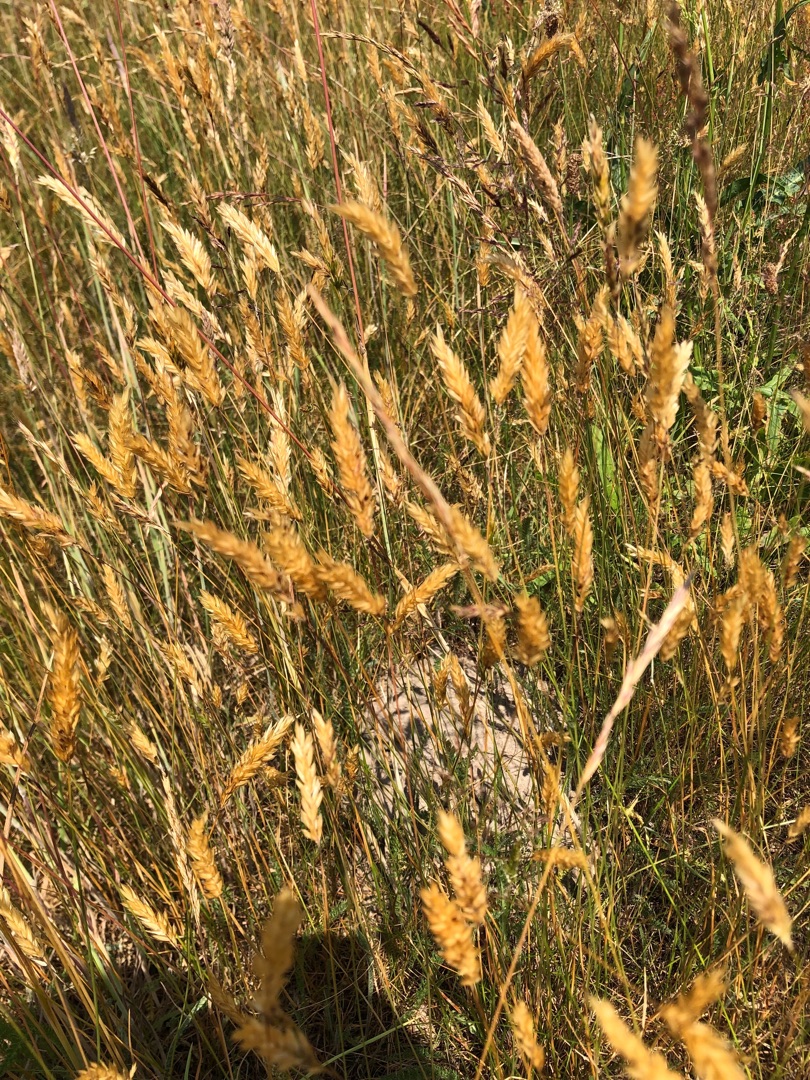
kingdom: Plantae
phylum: Tracheophyta
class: Liliopsida
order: Poales
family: Poaceae
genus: Anthoxanthum
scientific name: Anthoxanthum odoratum
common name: Vellugtende gulaks
